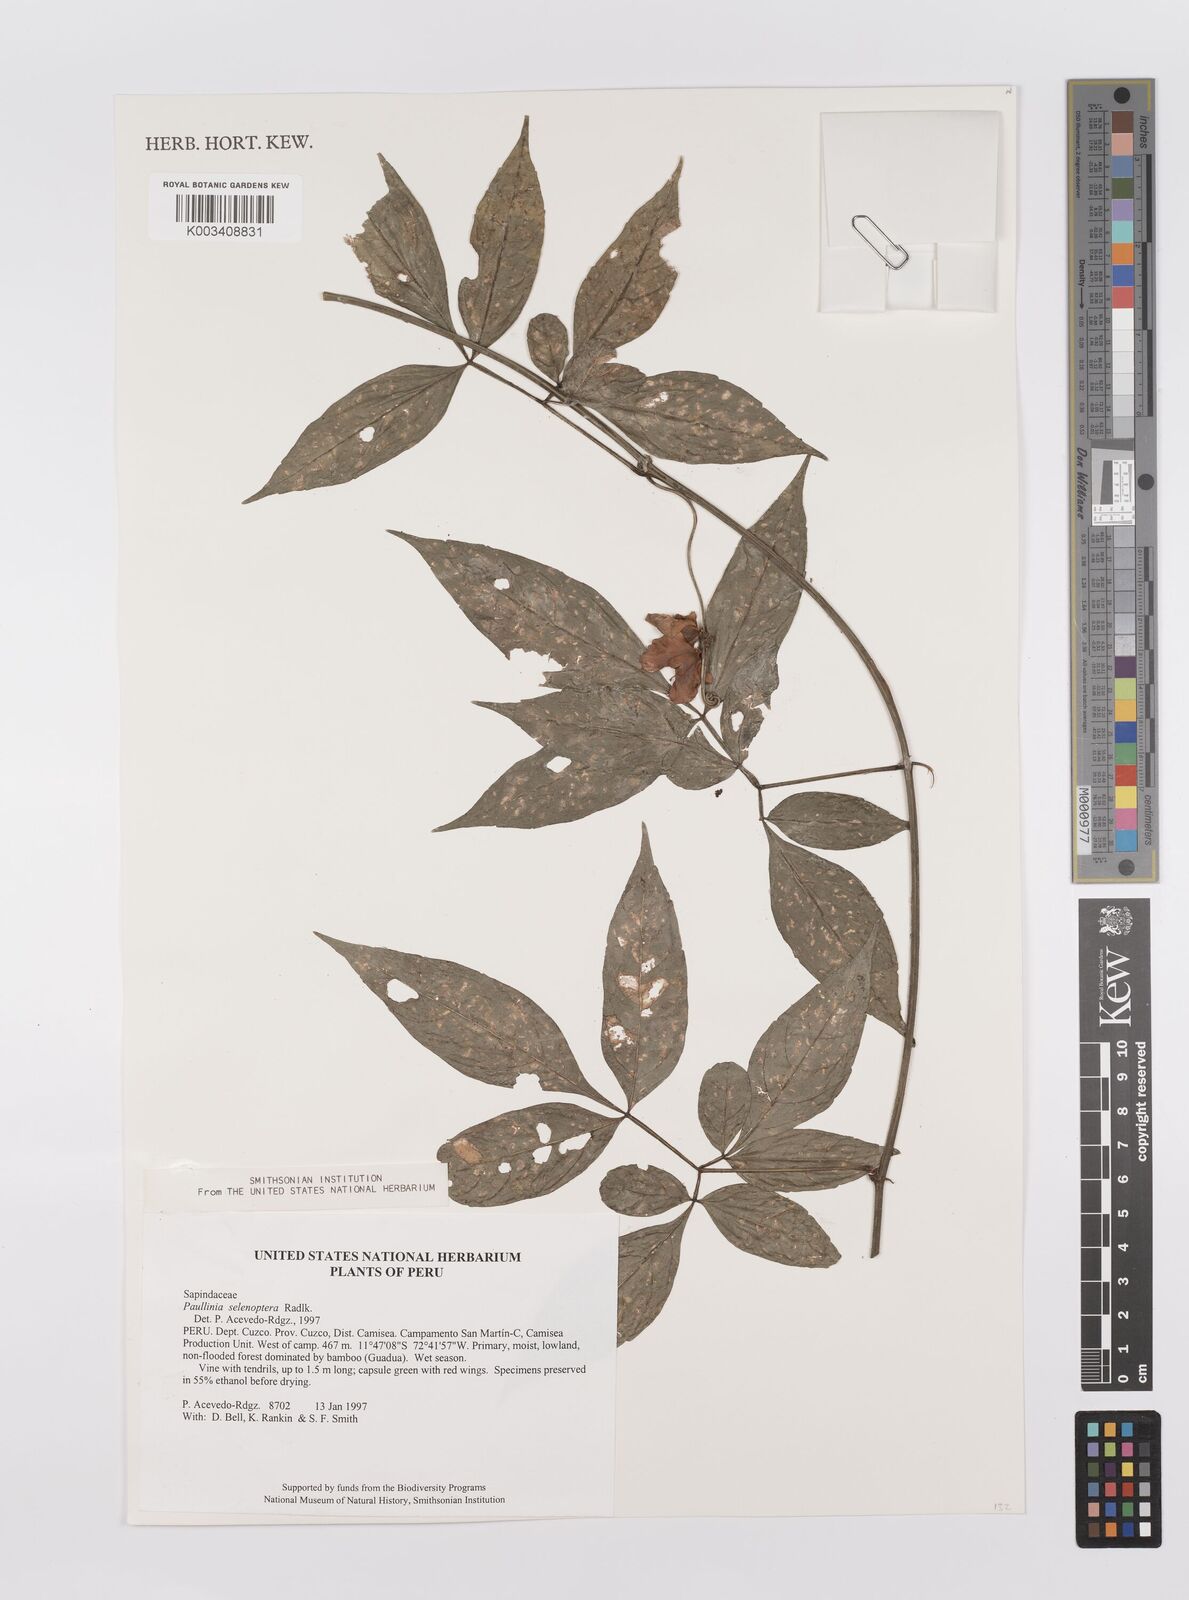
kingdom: Plantae
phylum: Tracheophyta
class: Magnoliopsida
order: Sapindales
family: Sapindaceae
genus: Paullinia
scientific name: Paullinia selenoptera
